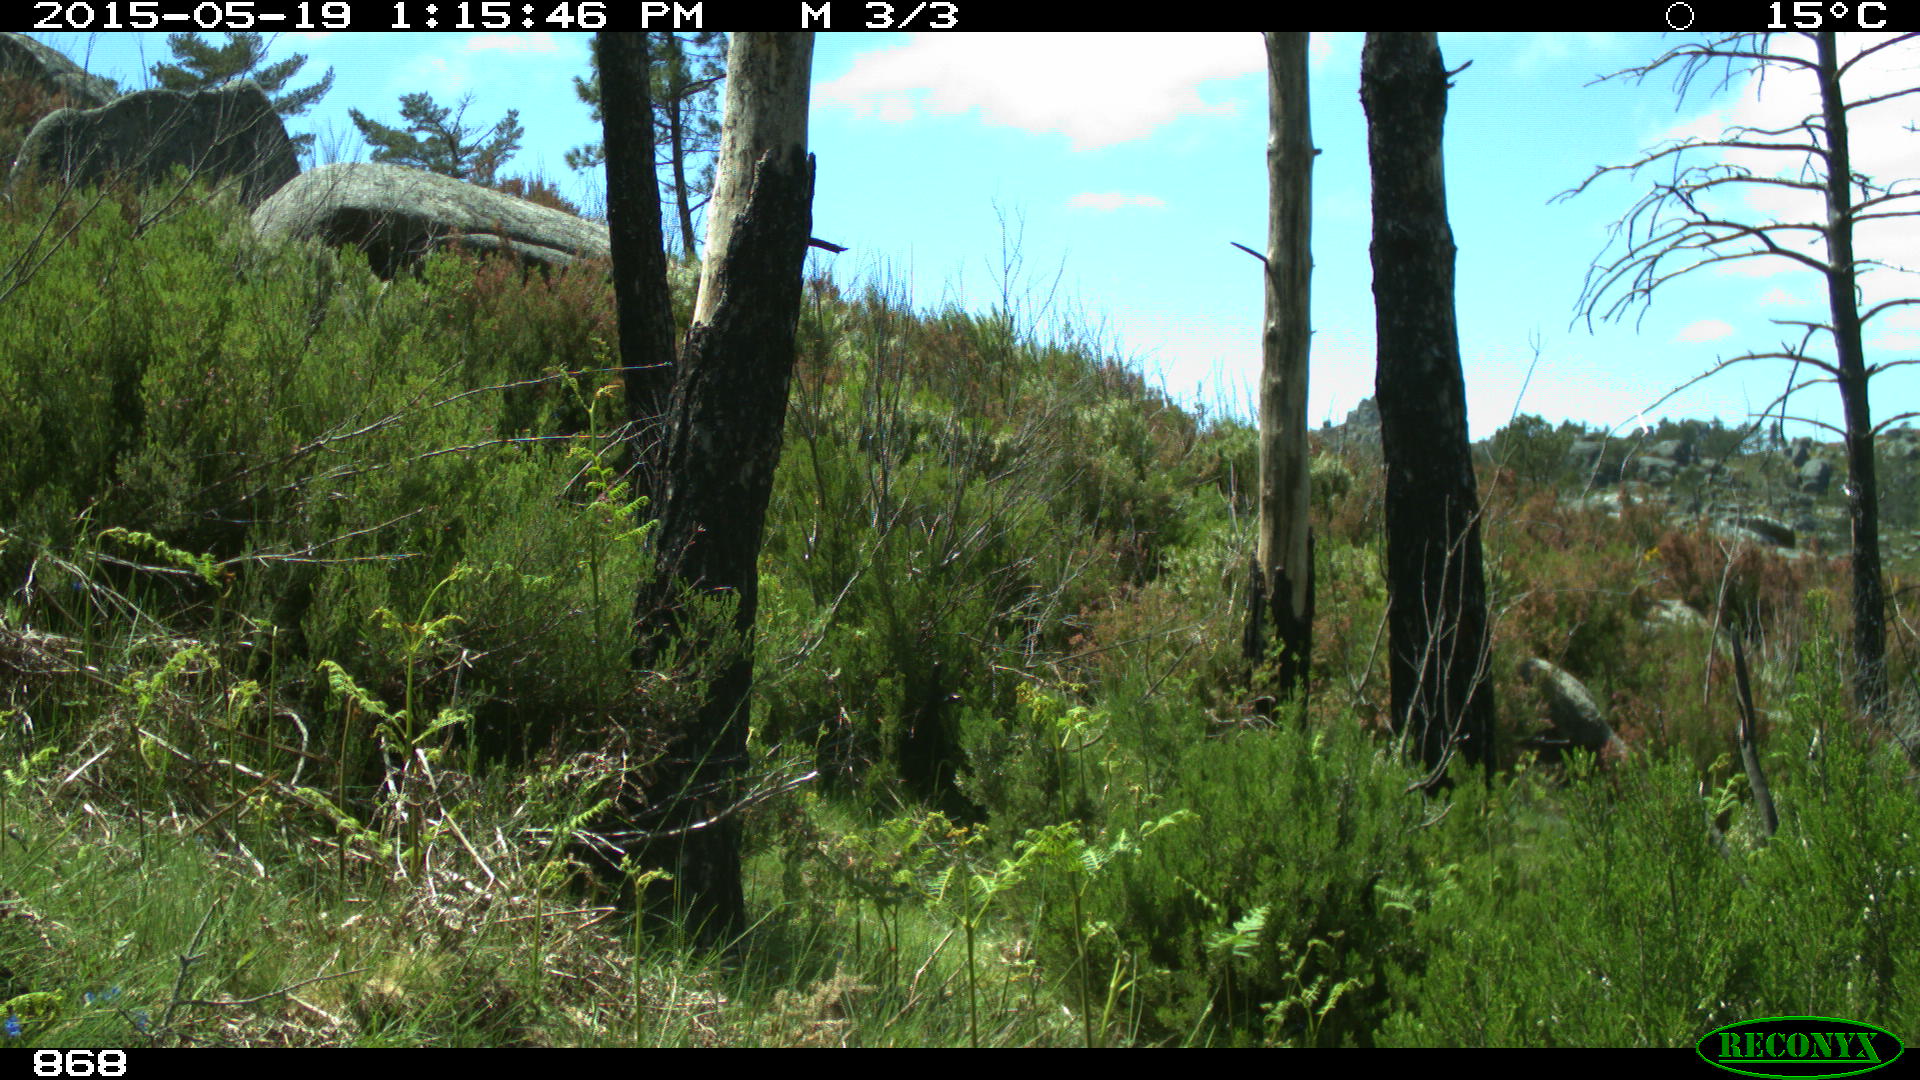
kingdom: Animalia
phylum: Chordata
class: Mammalia
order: Perissodactyla
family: Equidae
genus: Equus
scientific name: Equus caballus
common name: Horse
